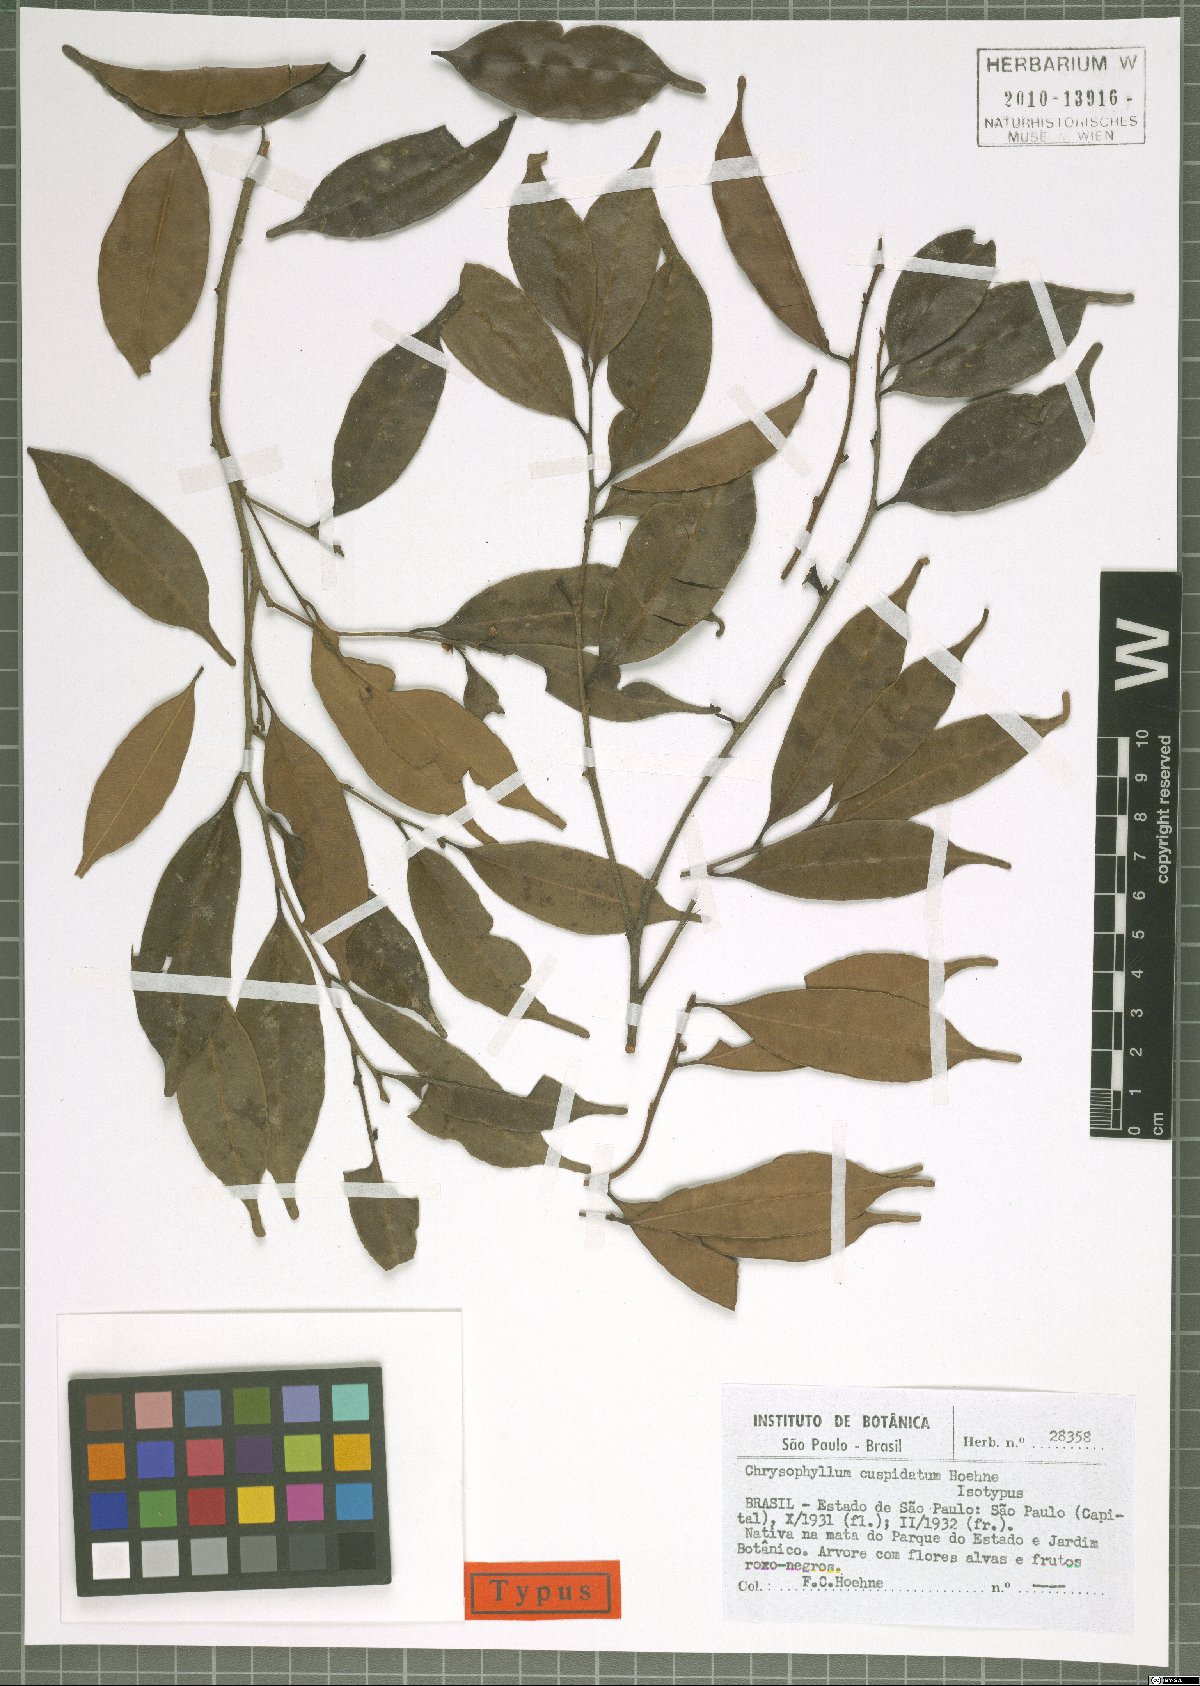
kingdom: Plantae
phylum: Tracheophyta
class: Magnoliopsida
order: Ericales
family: Sapotaceae
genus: Diploon
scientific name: Diploon cuspidatum
